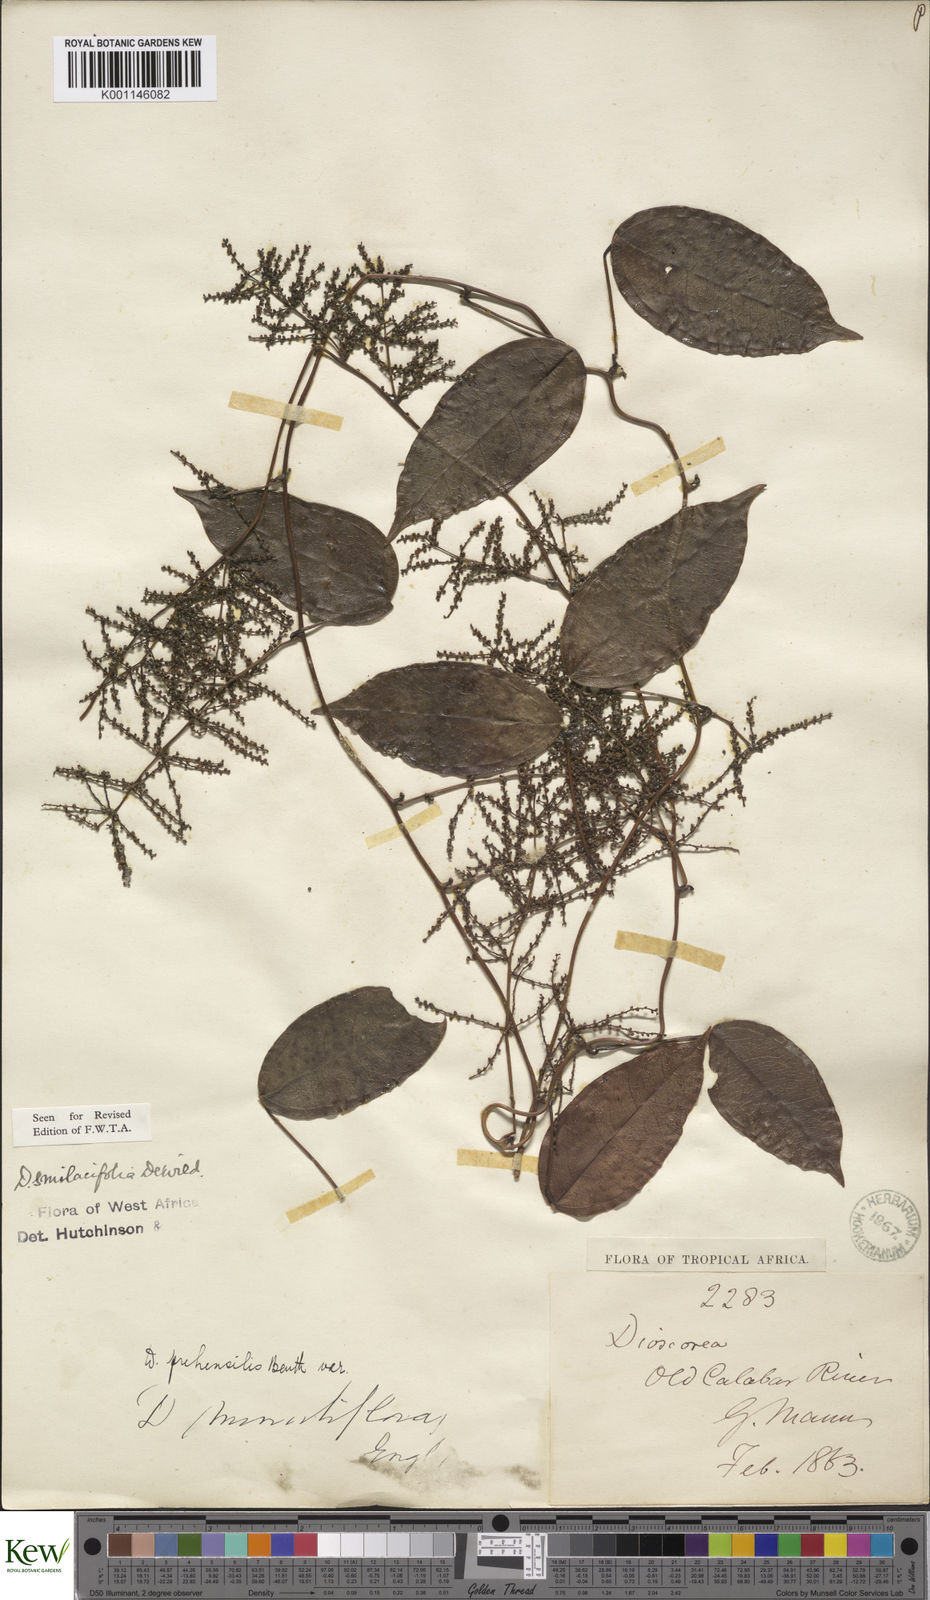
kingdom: Plantae
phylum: Tracheophyta
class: Liliopsida
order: Dioscoreales
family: Dioscoreaceae
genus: Dioscorea
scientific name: Dioscorea smilacifolia
